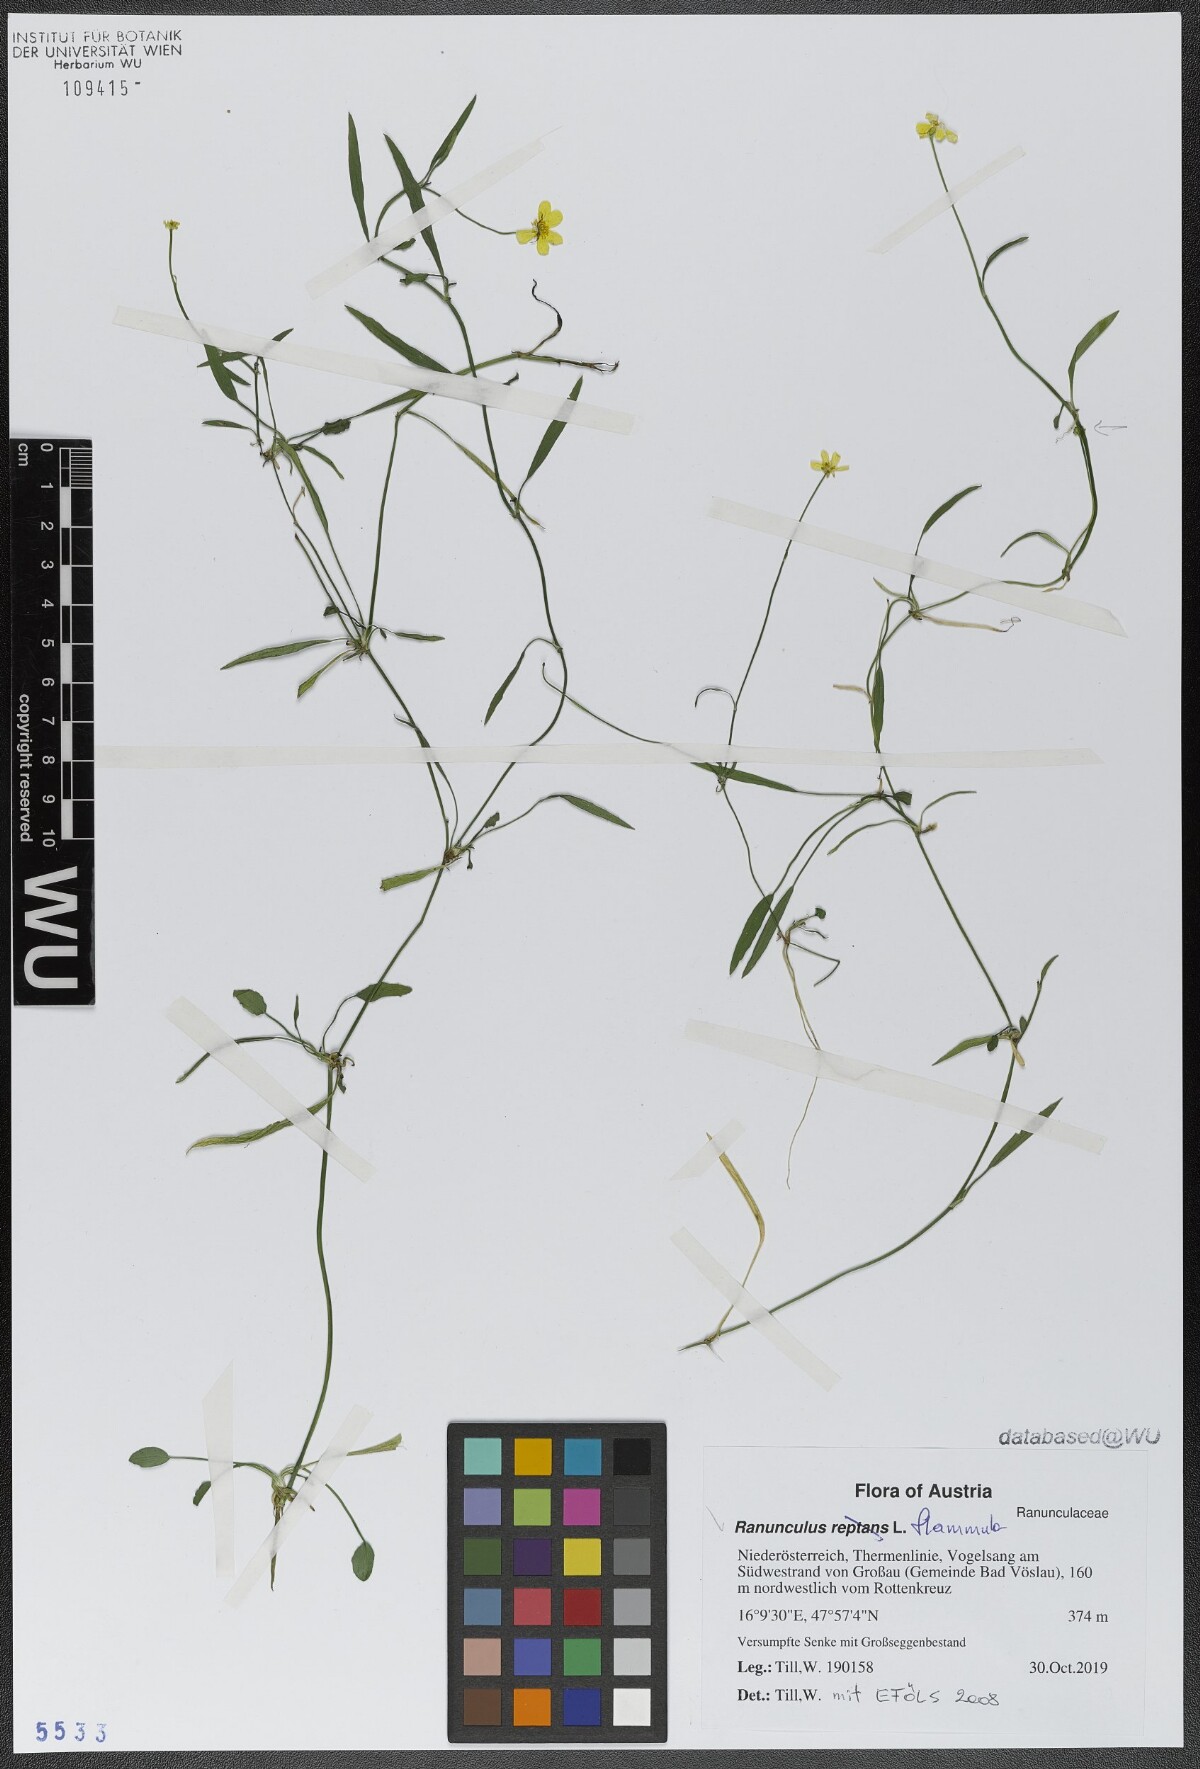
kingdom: Plantae
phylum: Tracheophyta
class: Magnoliopsida
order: Ranunculales
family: Ranunculaceae
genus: Ranunculus
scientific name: Ranunculus flammula
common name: Lesser spearwort
